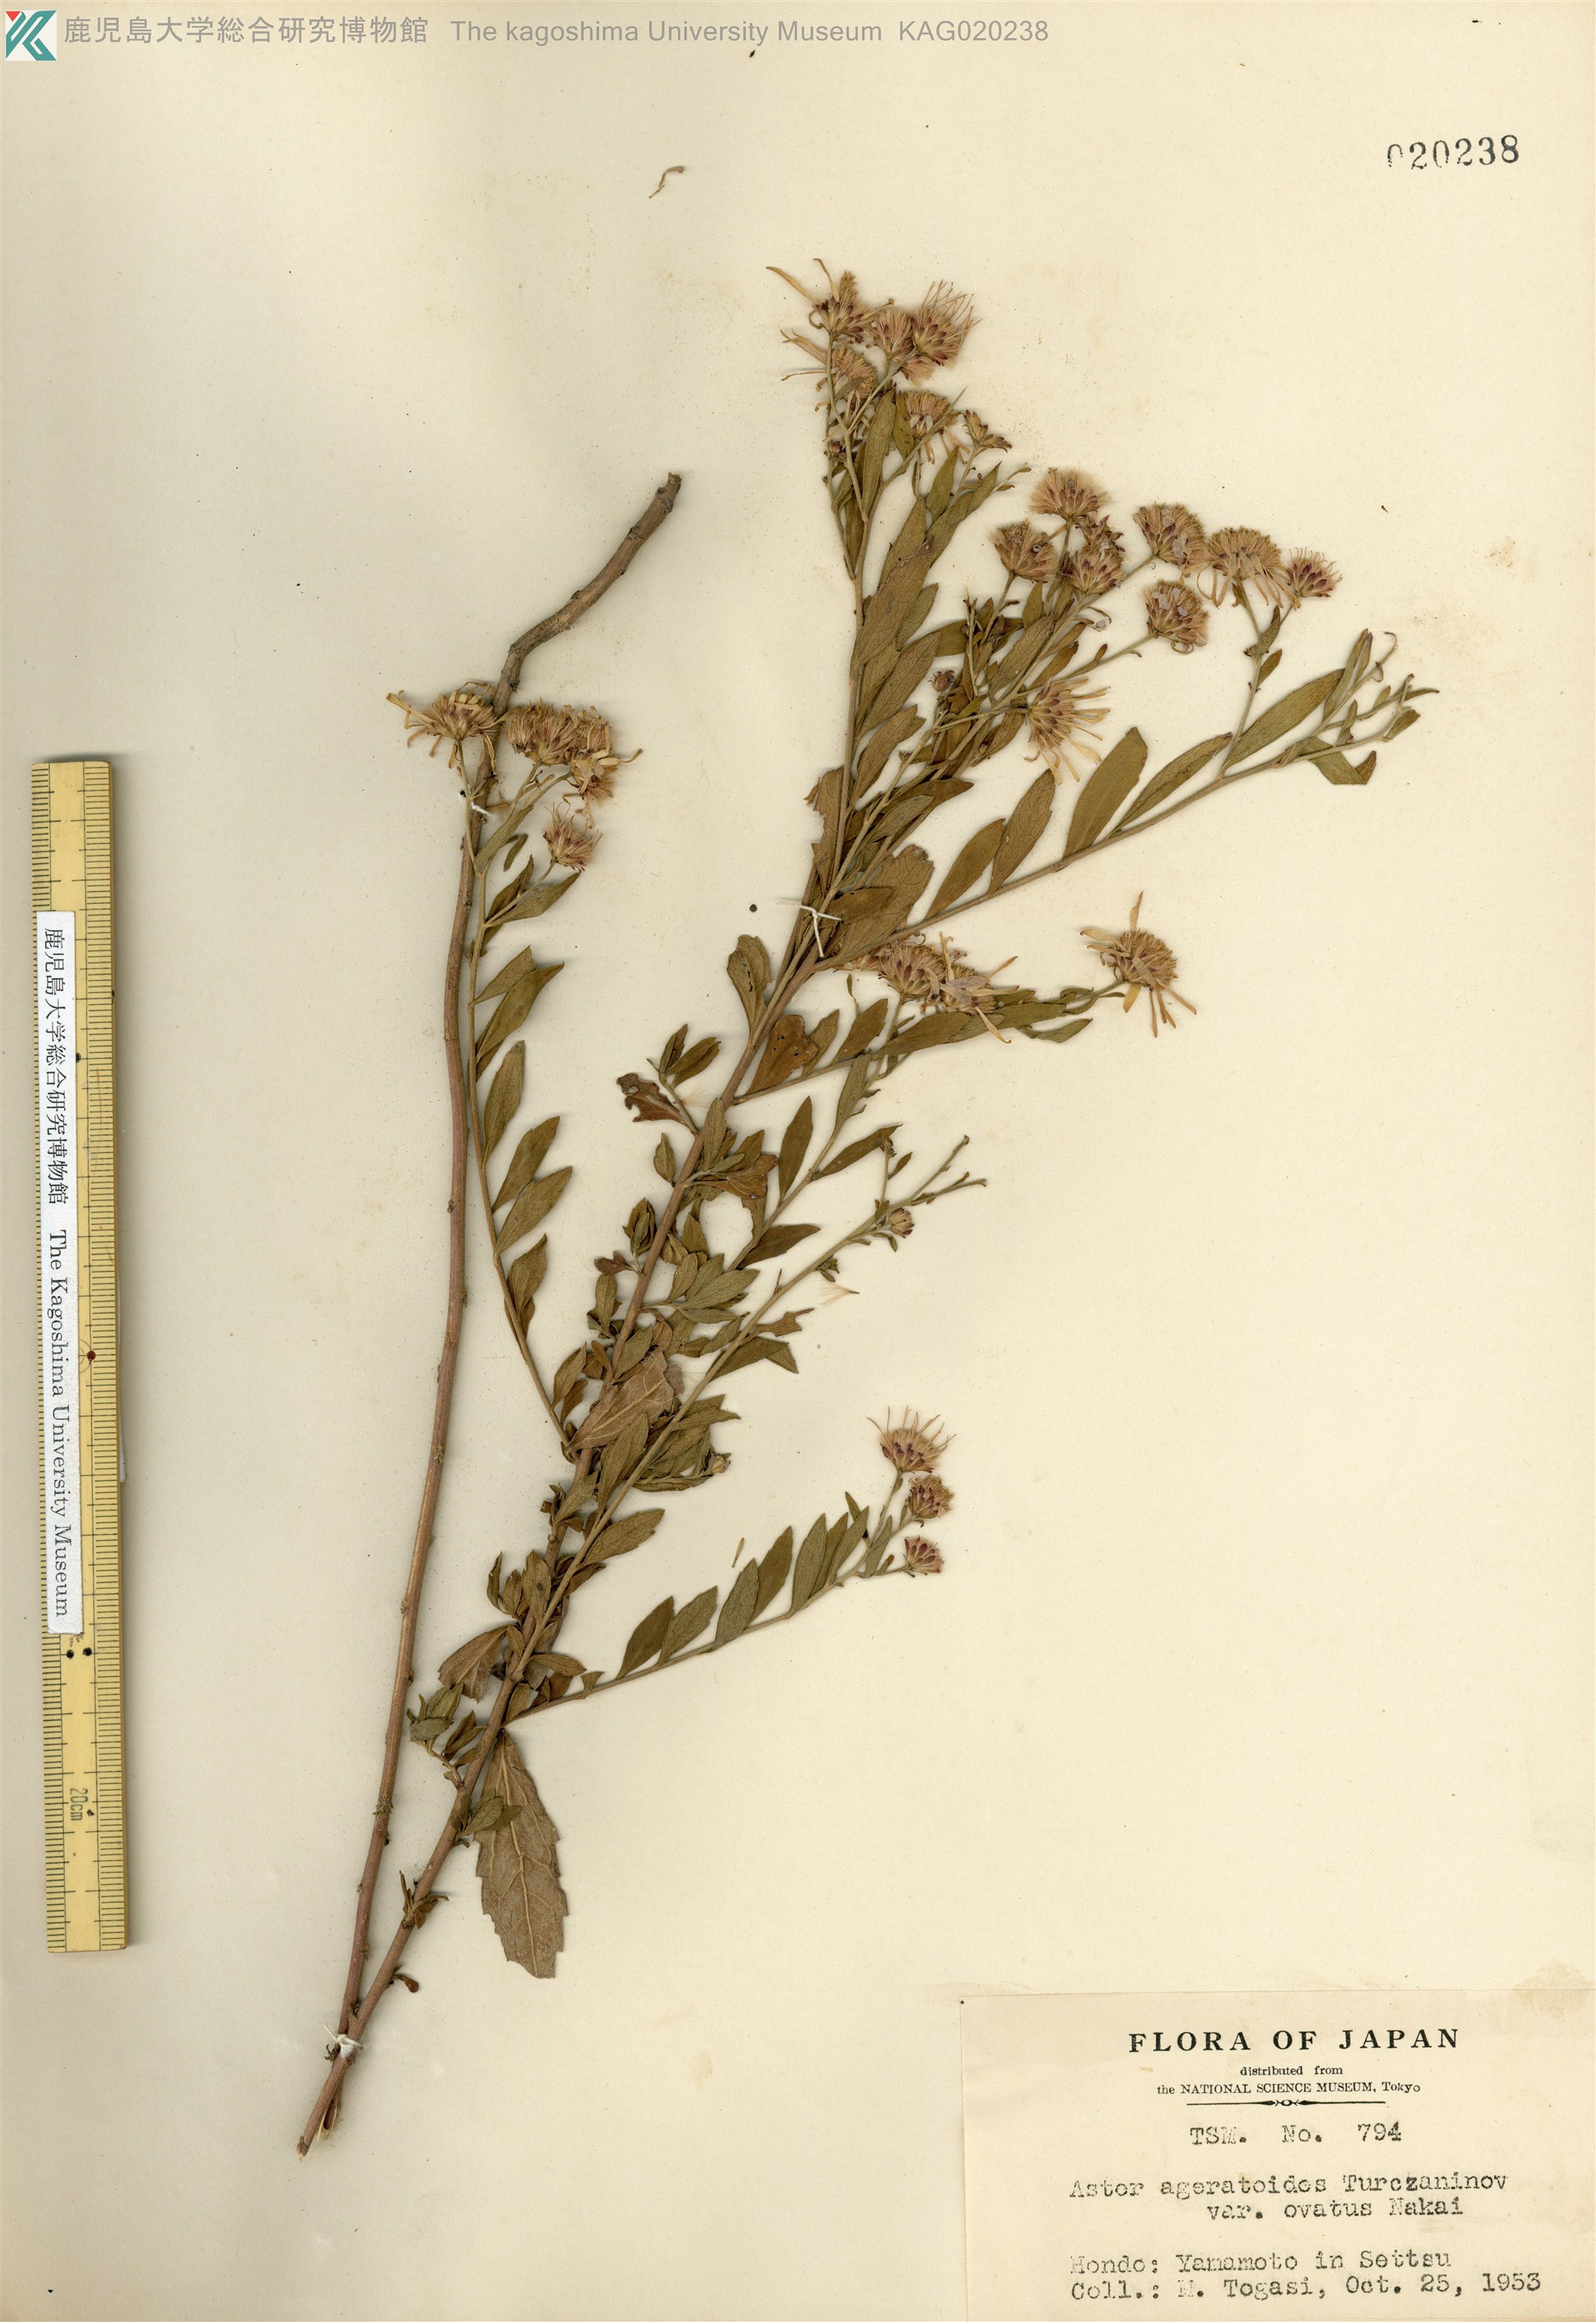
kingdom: Plantae
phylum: Tracheophyta
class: Magnoliopsida
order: Asterales
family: Asteraceae
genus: Aster
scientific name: Aster microcephalus
